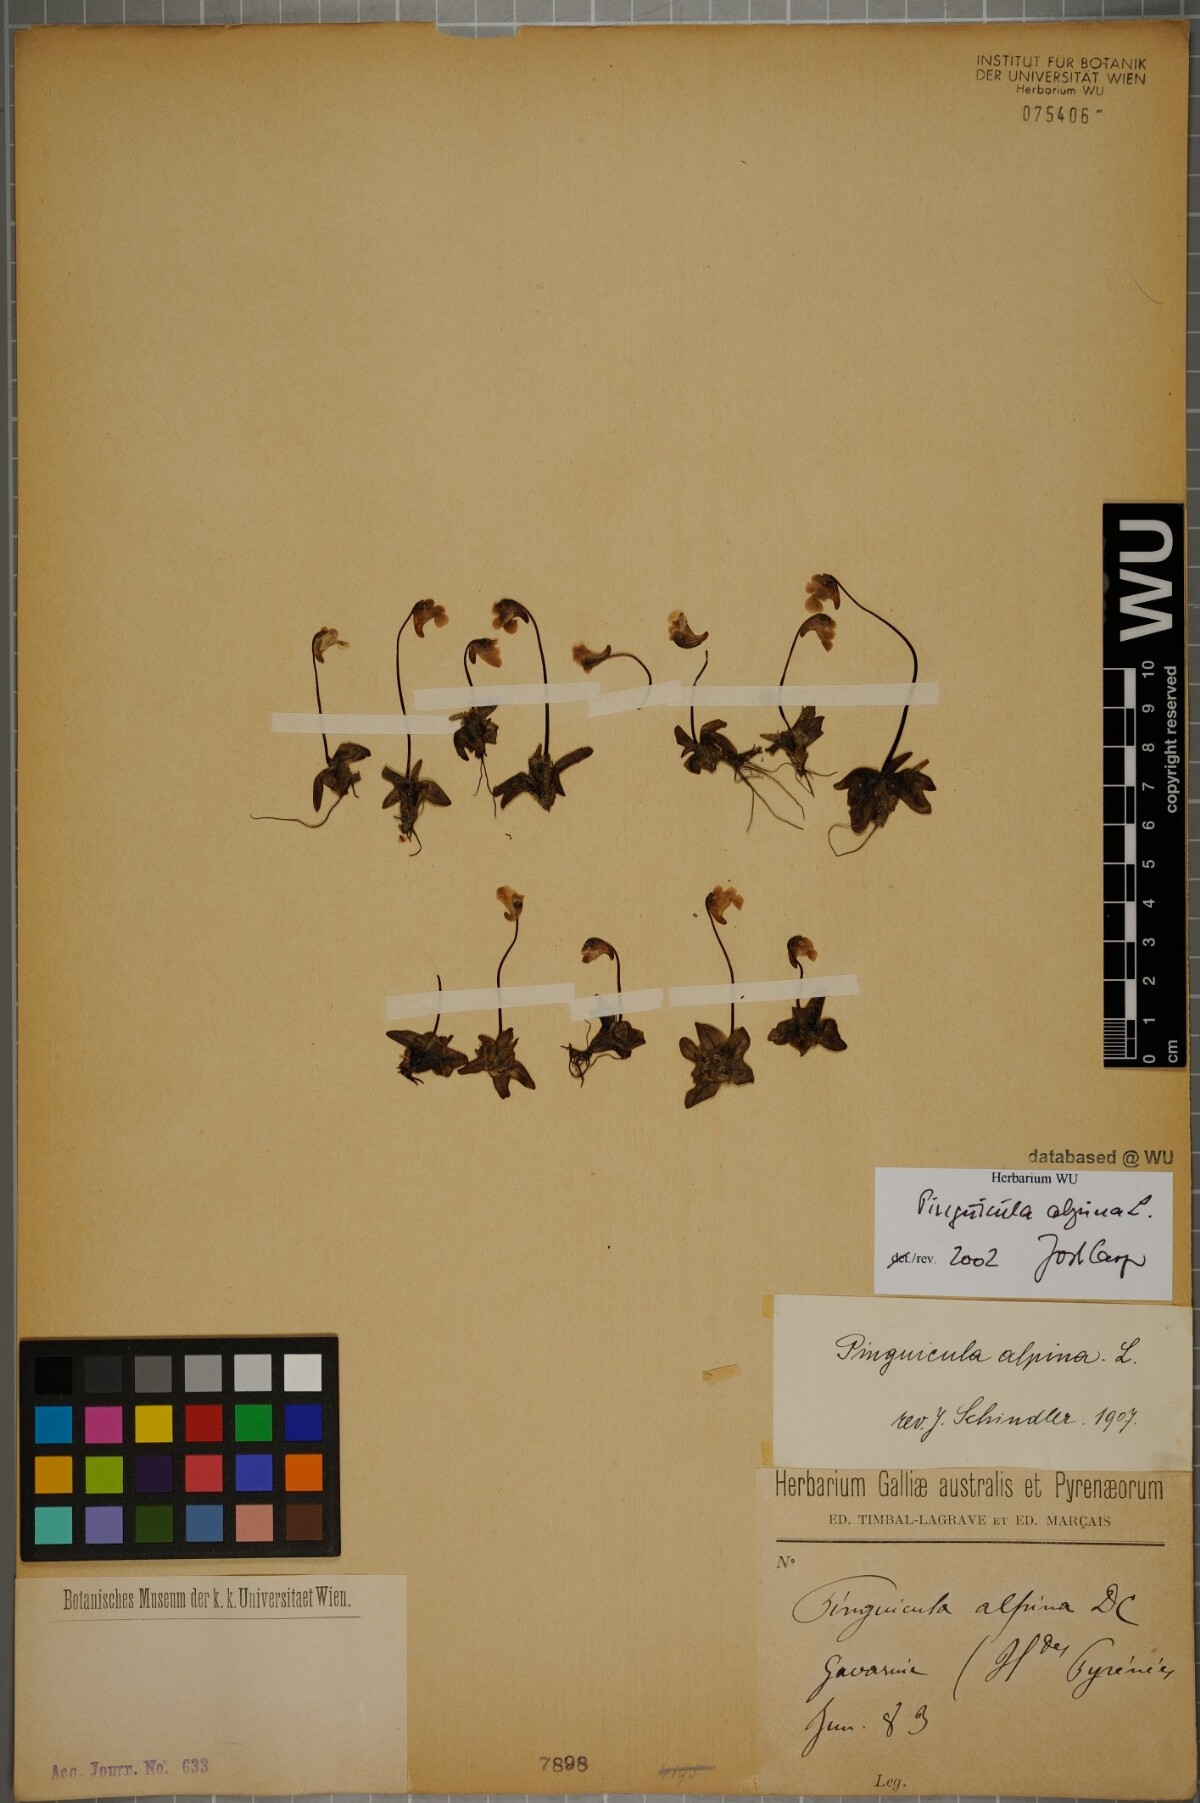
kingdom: Plantae
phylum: Tracheophyta
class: Magnoliopsida
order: Lamiales
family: Lentibulariaceae
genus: Pinguicula
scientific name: Pinguicula alpina
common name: Alpine butterwort
